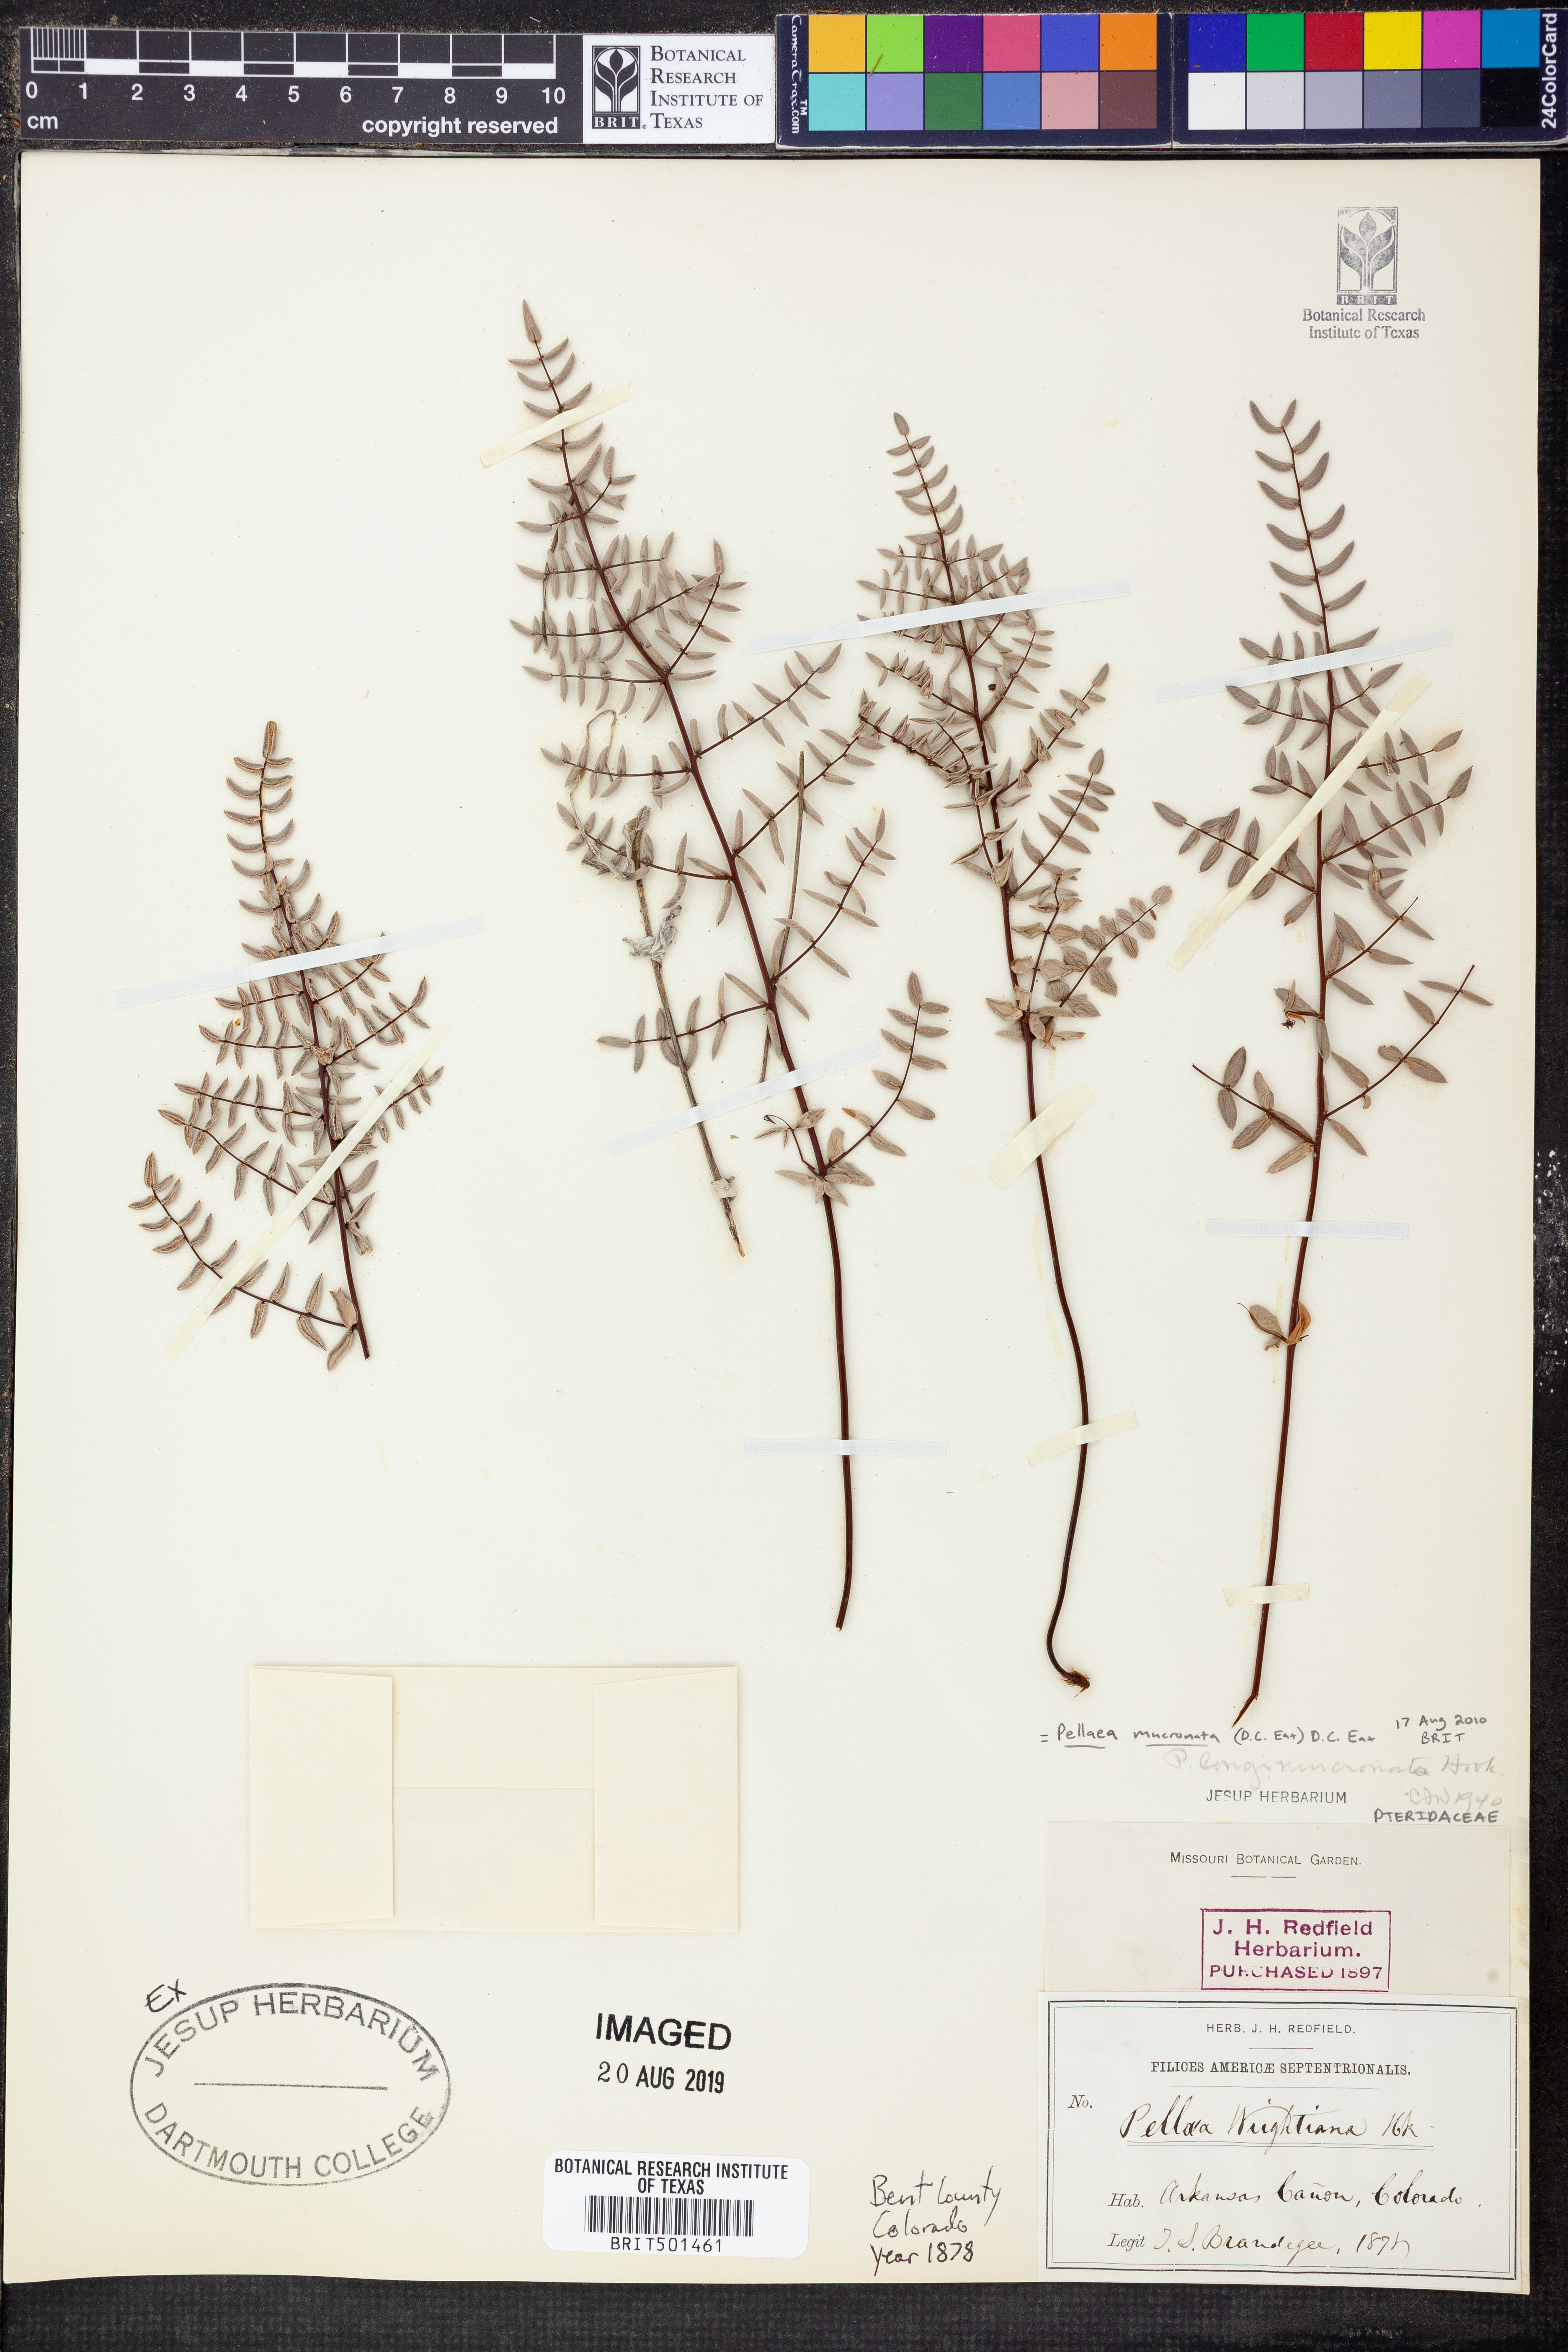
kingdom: Plantae
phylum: Tracheophyta
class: Polypodiopsida
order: Polypodiales
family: Pteridaceae
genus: Pellaea
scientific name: Pellaea atropurpurea
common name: Hairy cliffbrake
